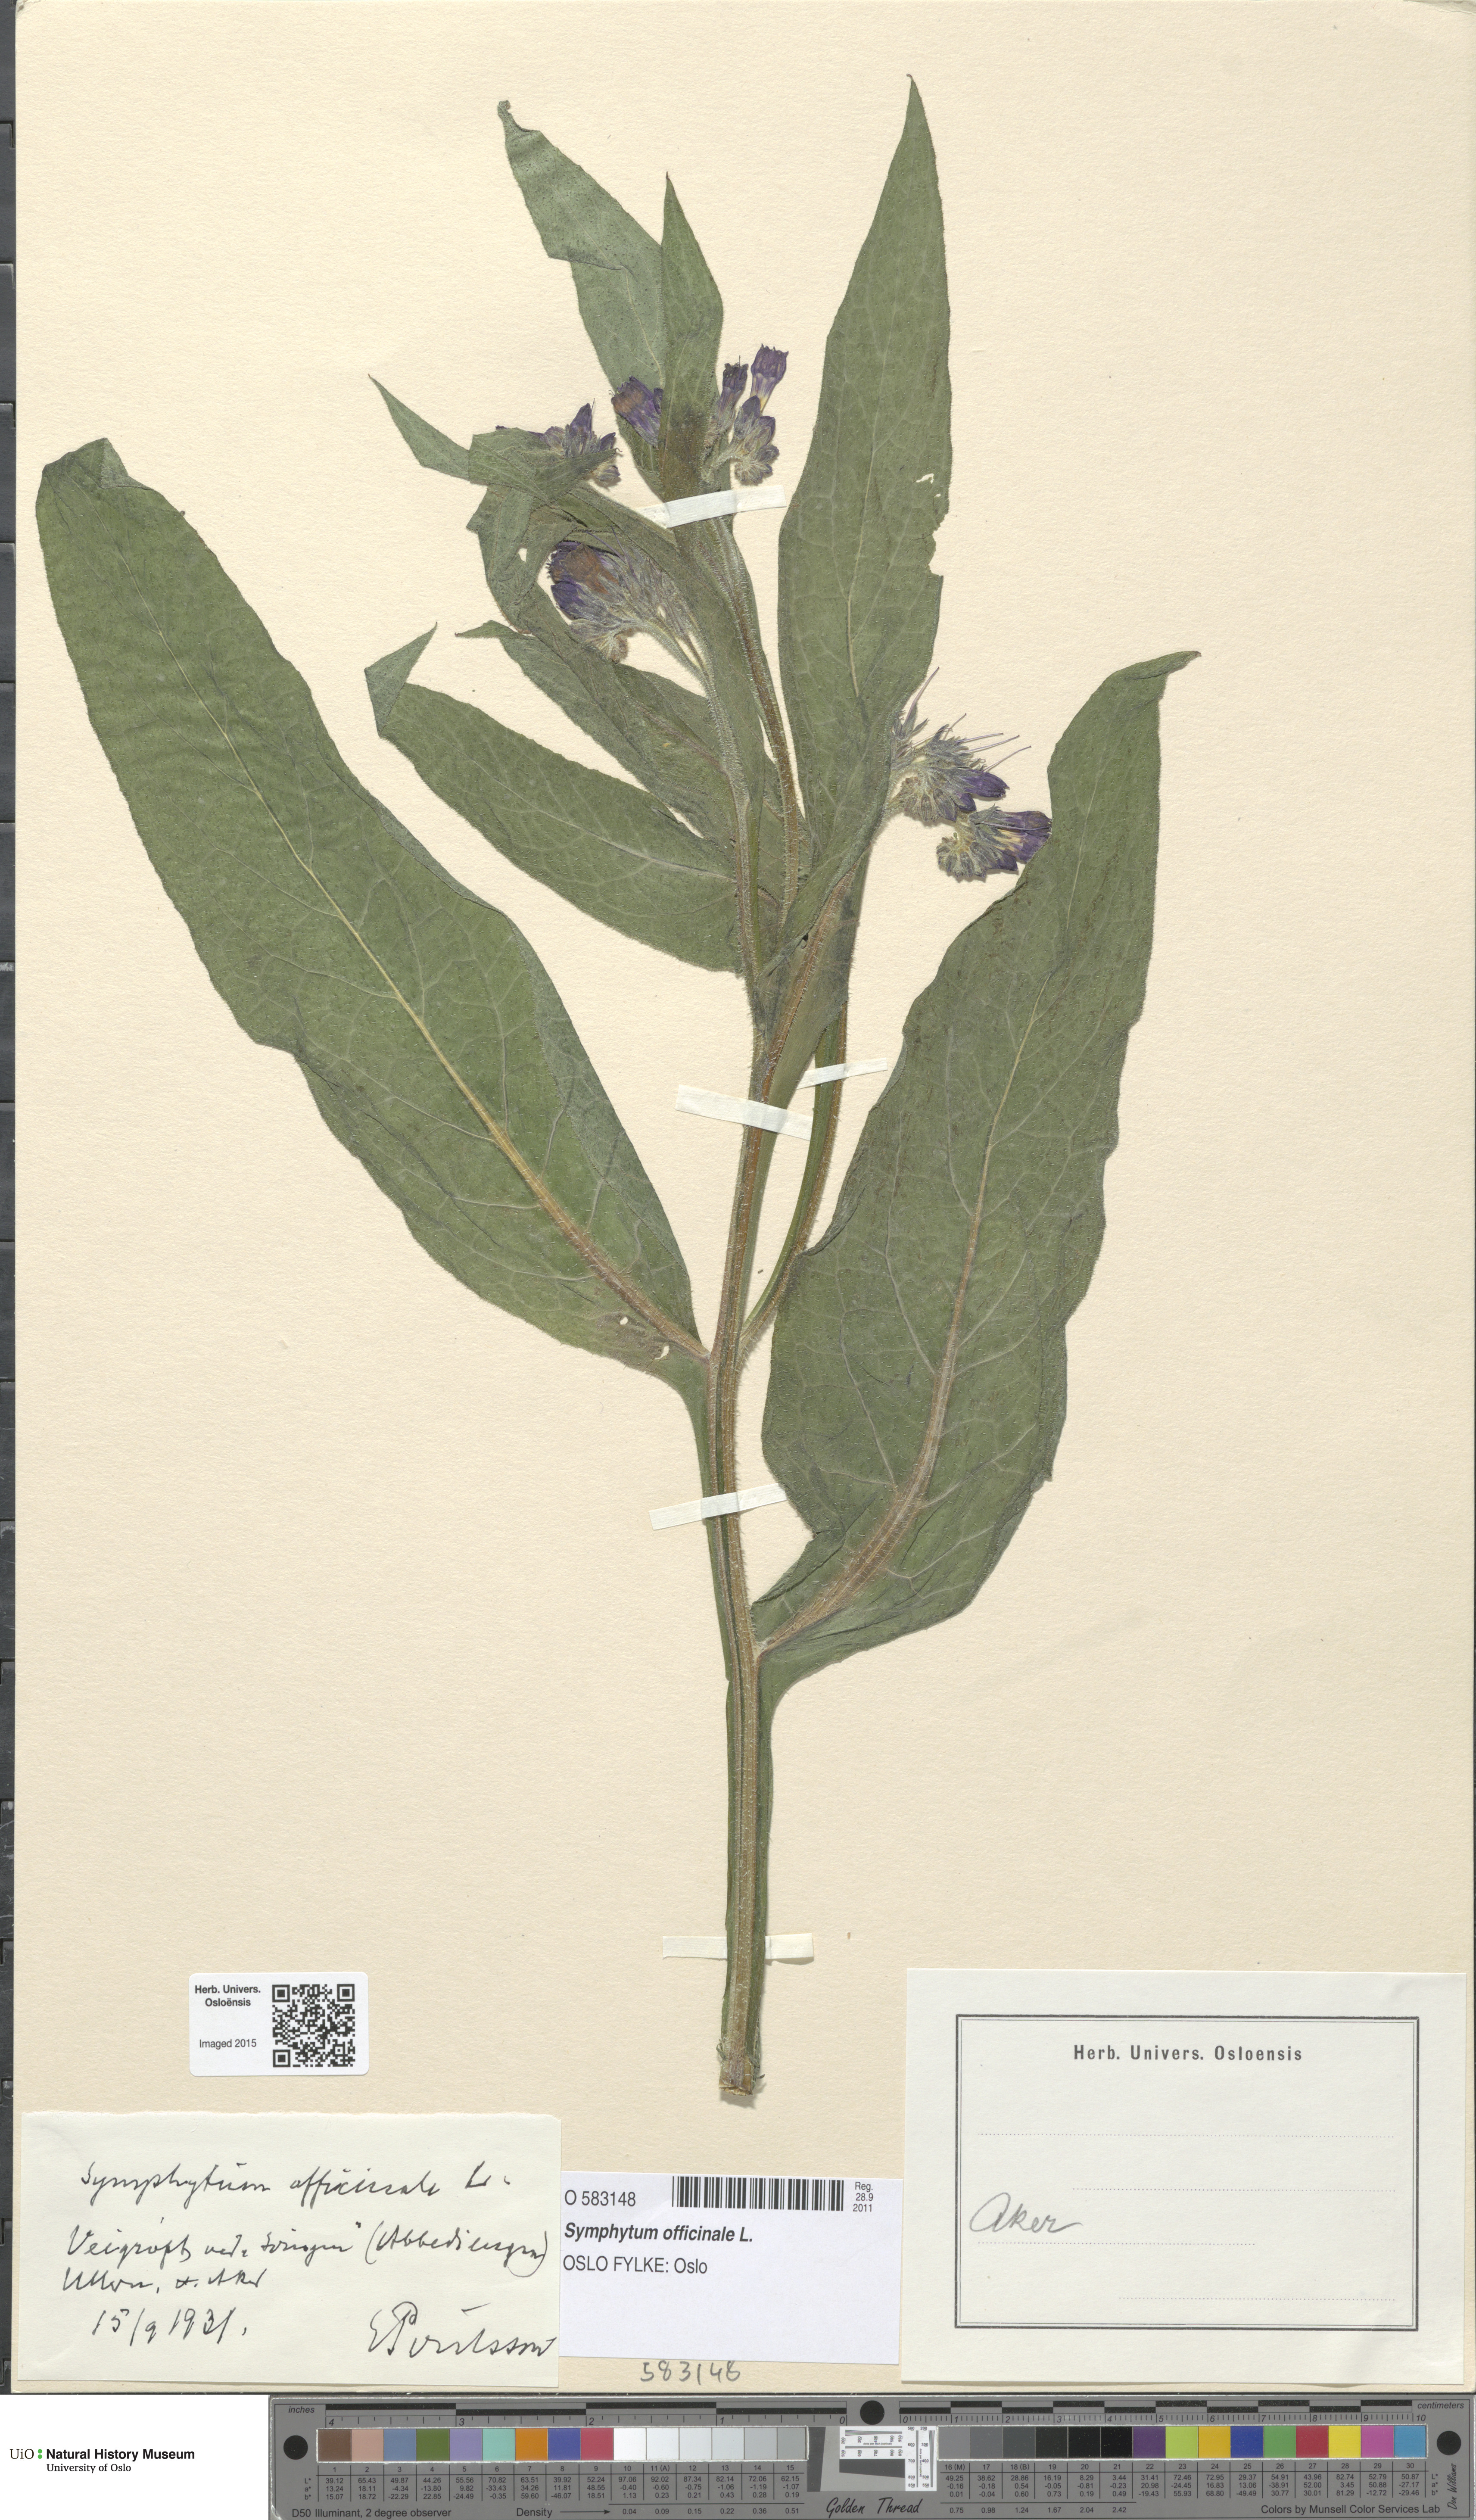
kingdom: Plantae
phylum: Tracheophyta
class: Magnoliopsida
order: Boraginales
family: Boraginaceae
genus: Symphytum
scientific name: Symphytum officinale
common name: Common comfrey
